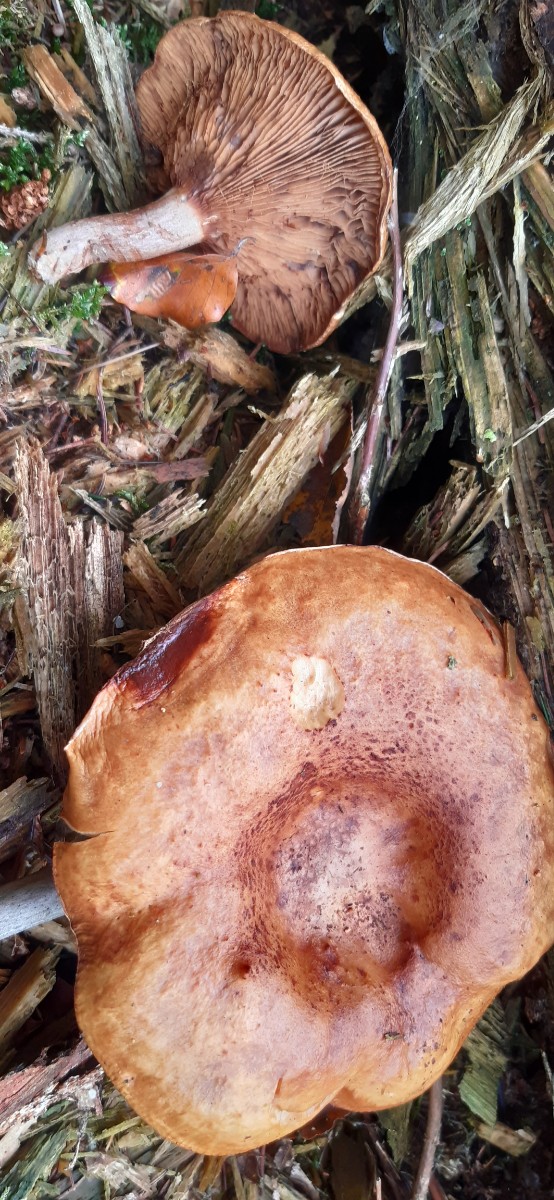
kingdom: Fungi
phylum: Basidiomycota
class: Agaricomycetes
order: Boletales
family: Paxillaceae
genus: Paxillus
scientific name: Paxillus involutus
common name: almindelig netbladhat
